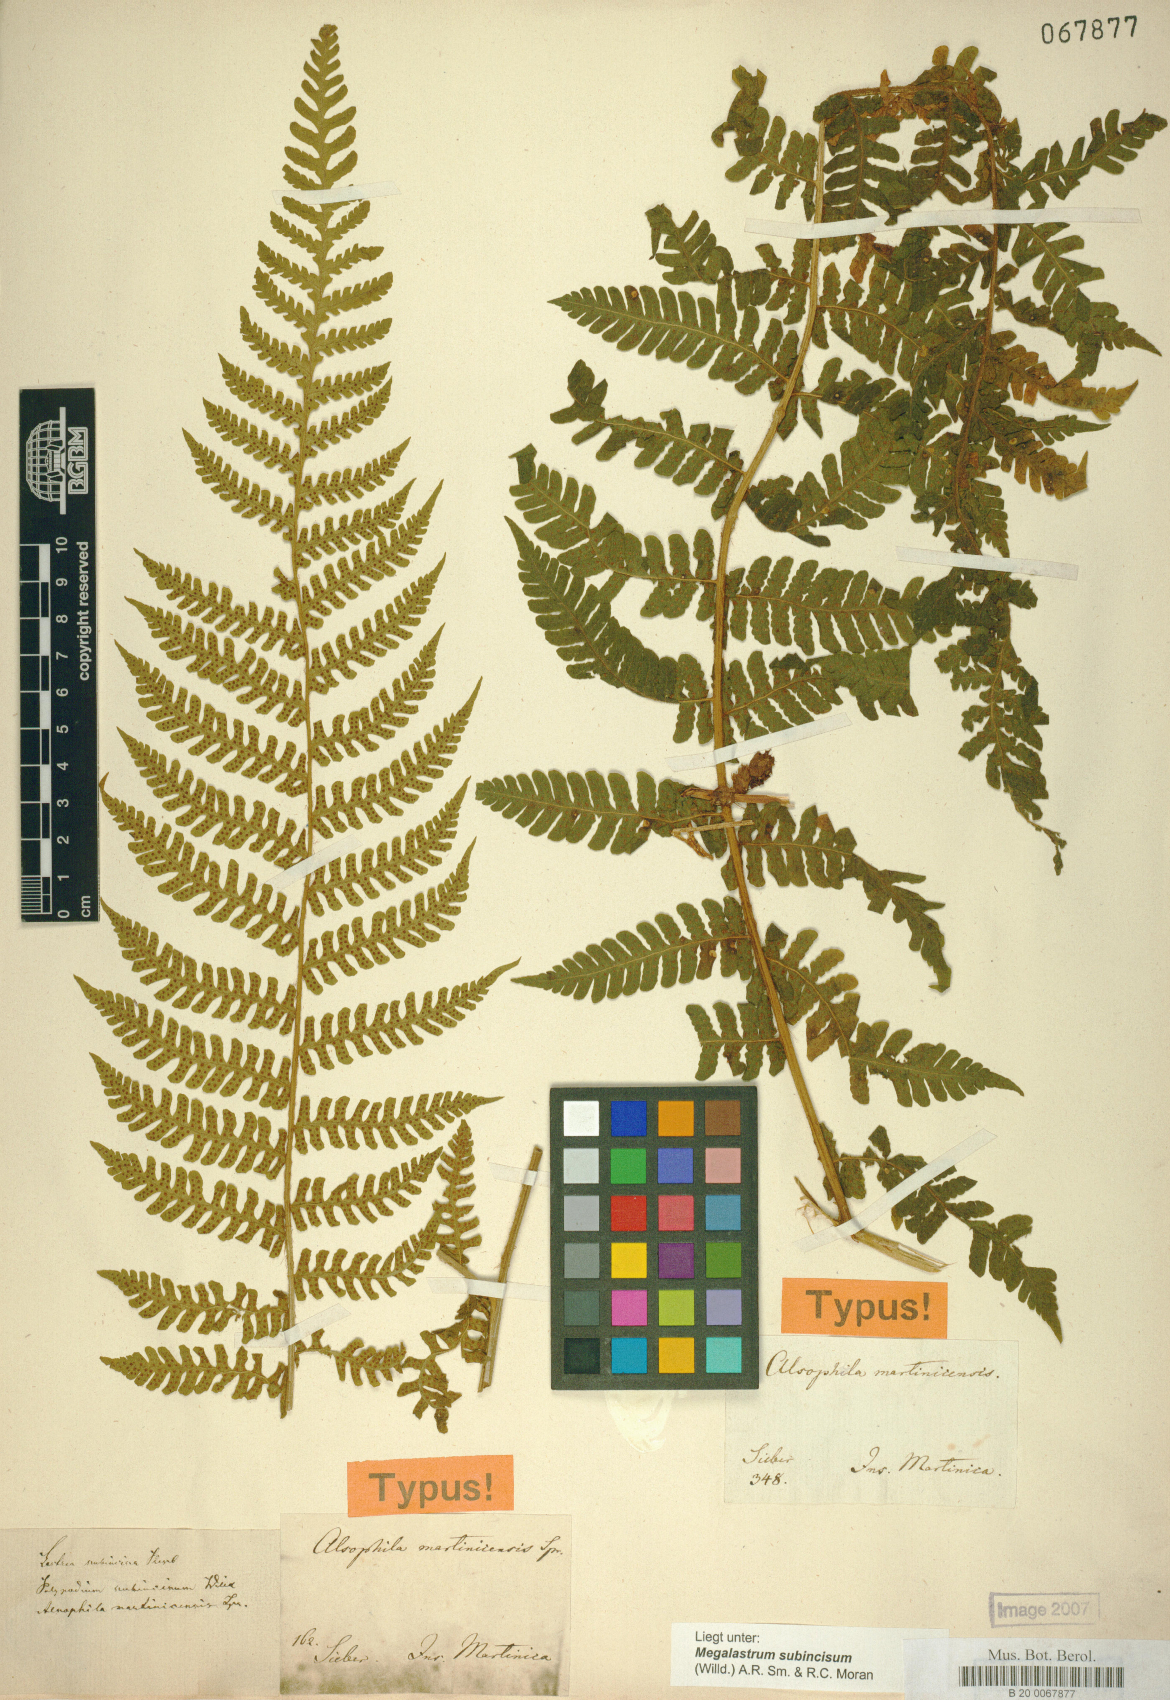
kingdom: Plantae
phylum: Tracheophyta
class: Polypodiopsida
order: Polypodiales
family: Dryopteridaceae
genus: Megalastrum
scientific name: Megalastrum martinicense
